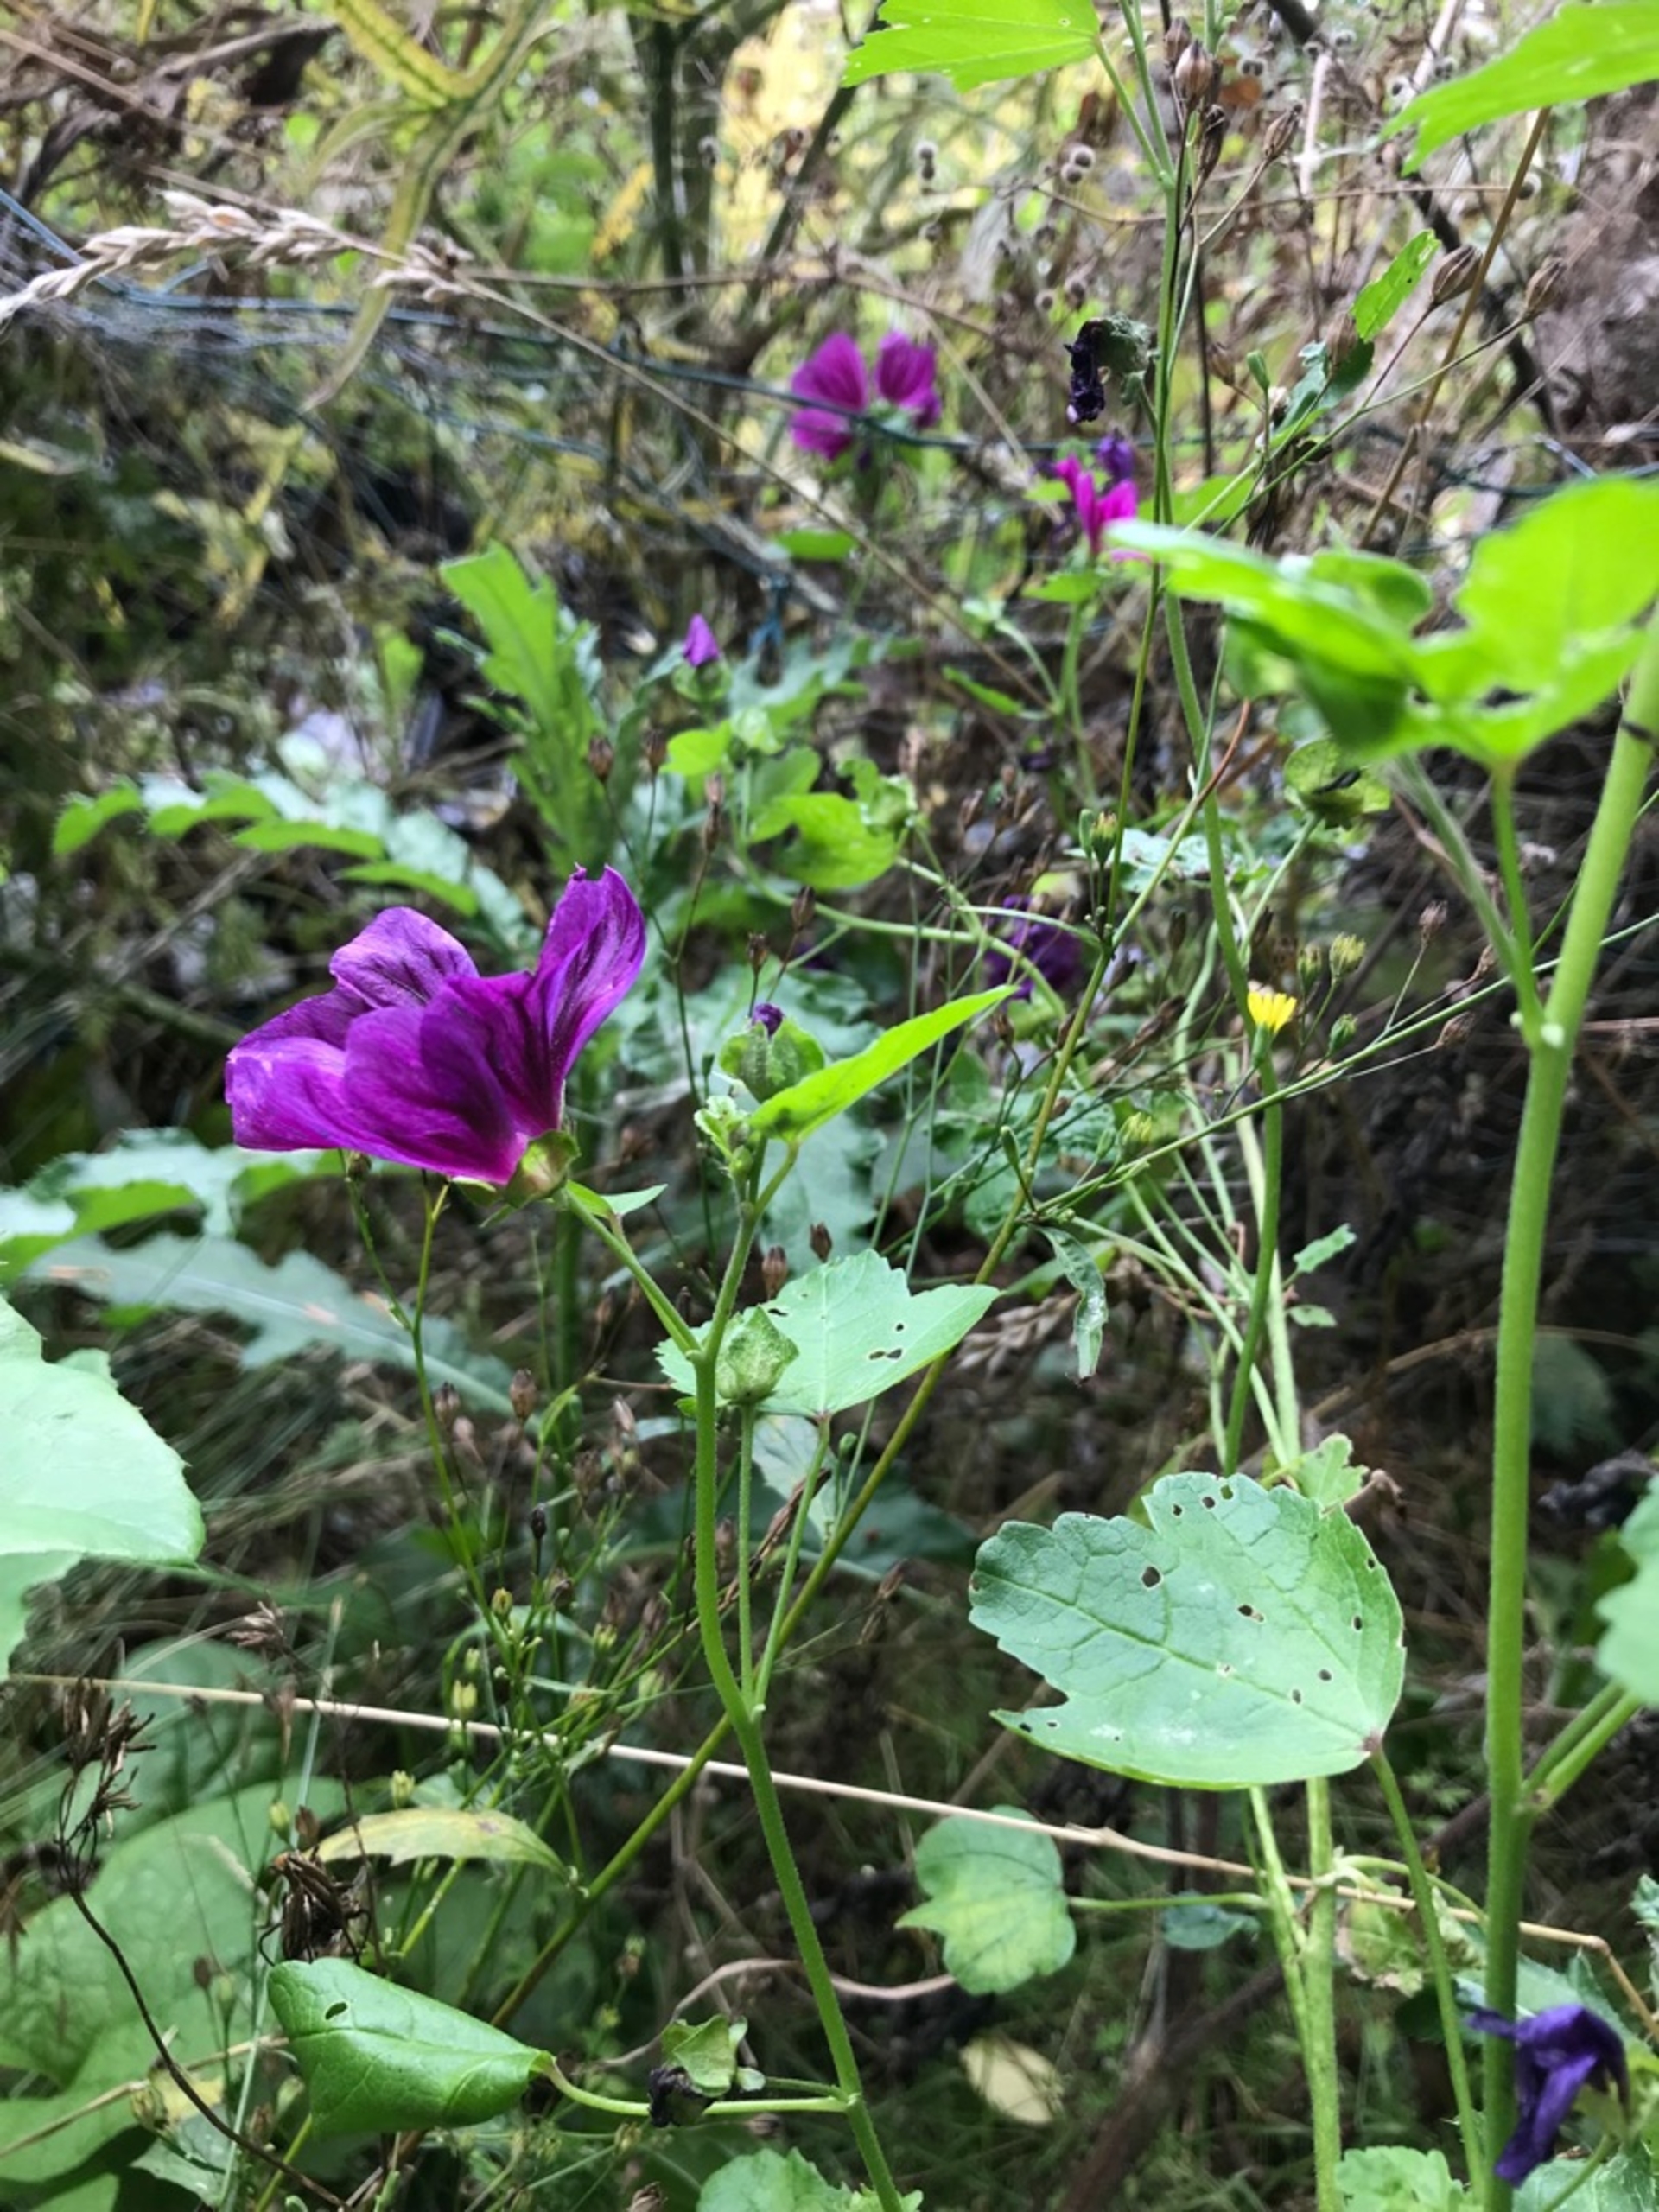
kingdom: Plantae
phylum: Tracheophyta
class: Magnoliopsida
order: Malvales
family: Malvaceae
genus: Malva
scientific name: Malva sylvestris
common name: Stor katost
